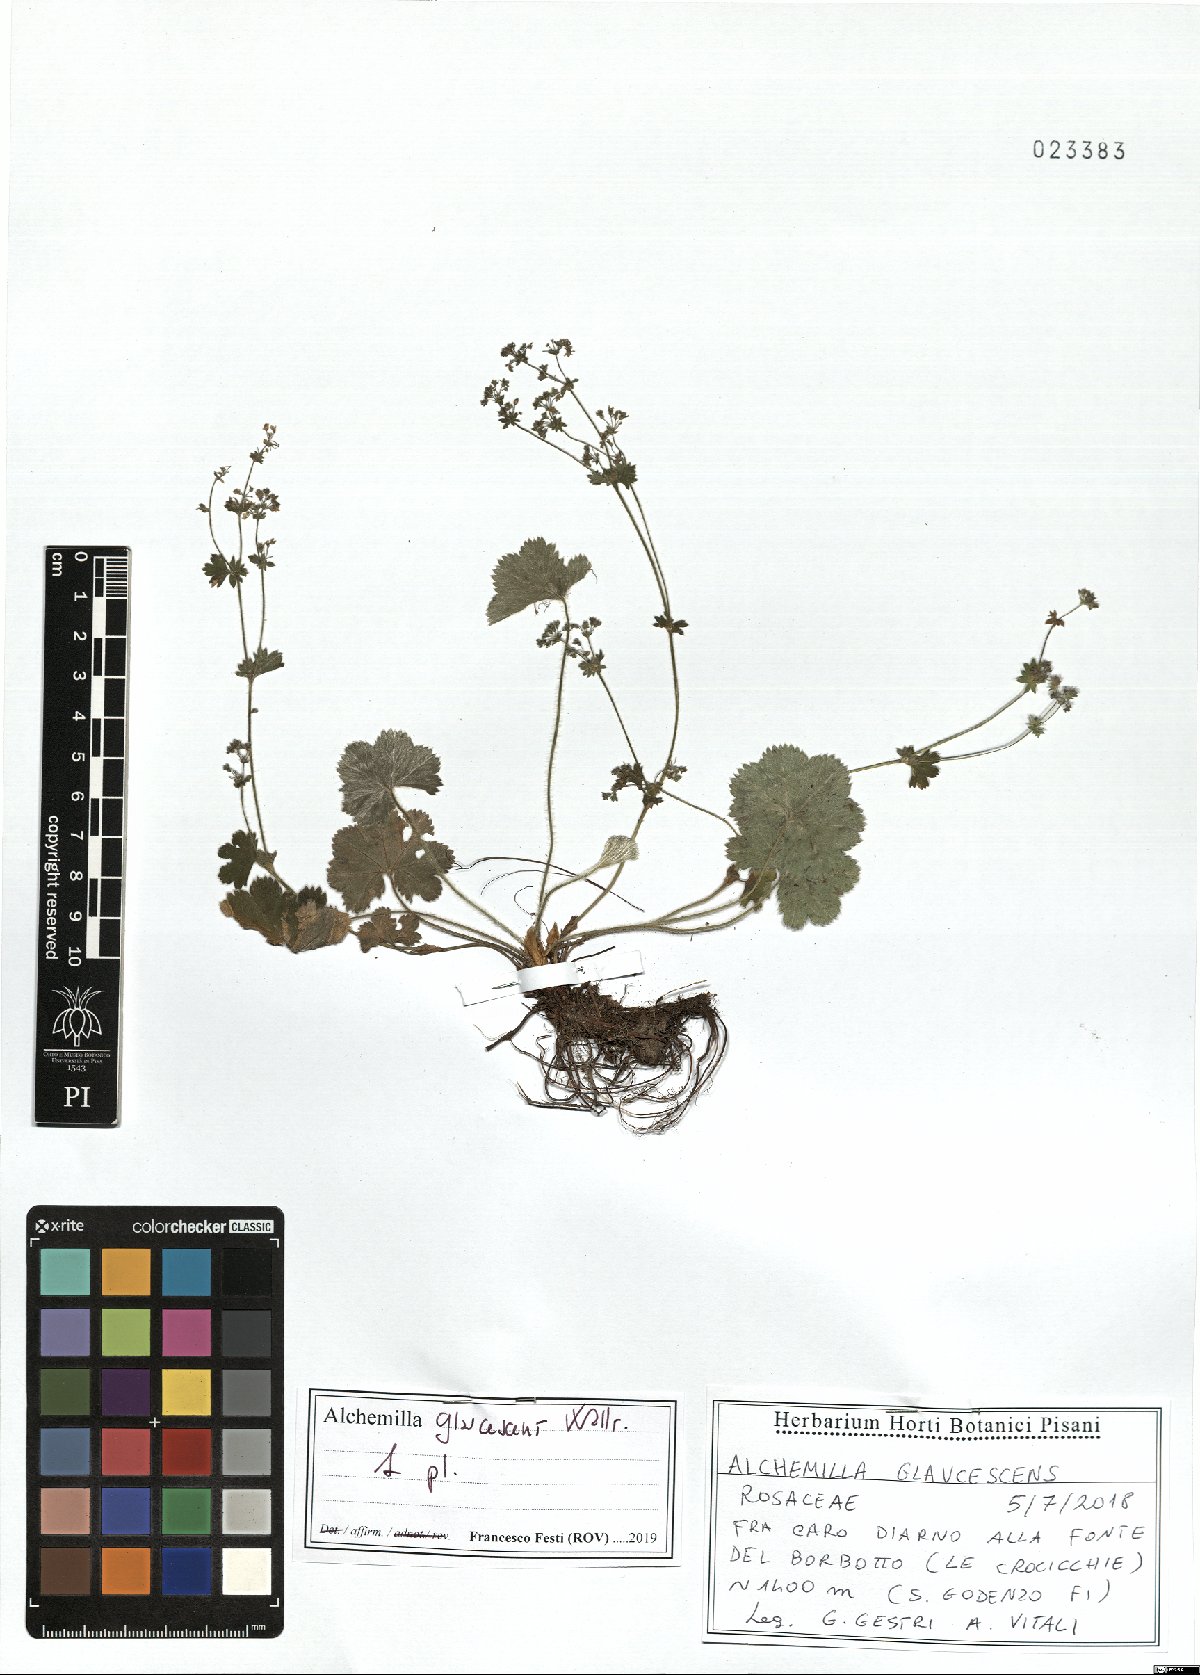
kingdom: Plantae
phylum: Tracheophyta
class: Magnoliopsida
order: Rosales
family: Rosaceae
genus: Alchemilla
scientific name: Alchemilla glaucescens
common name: Silky lady's mantle
